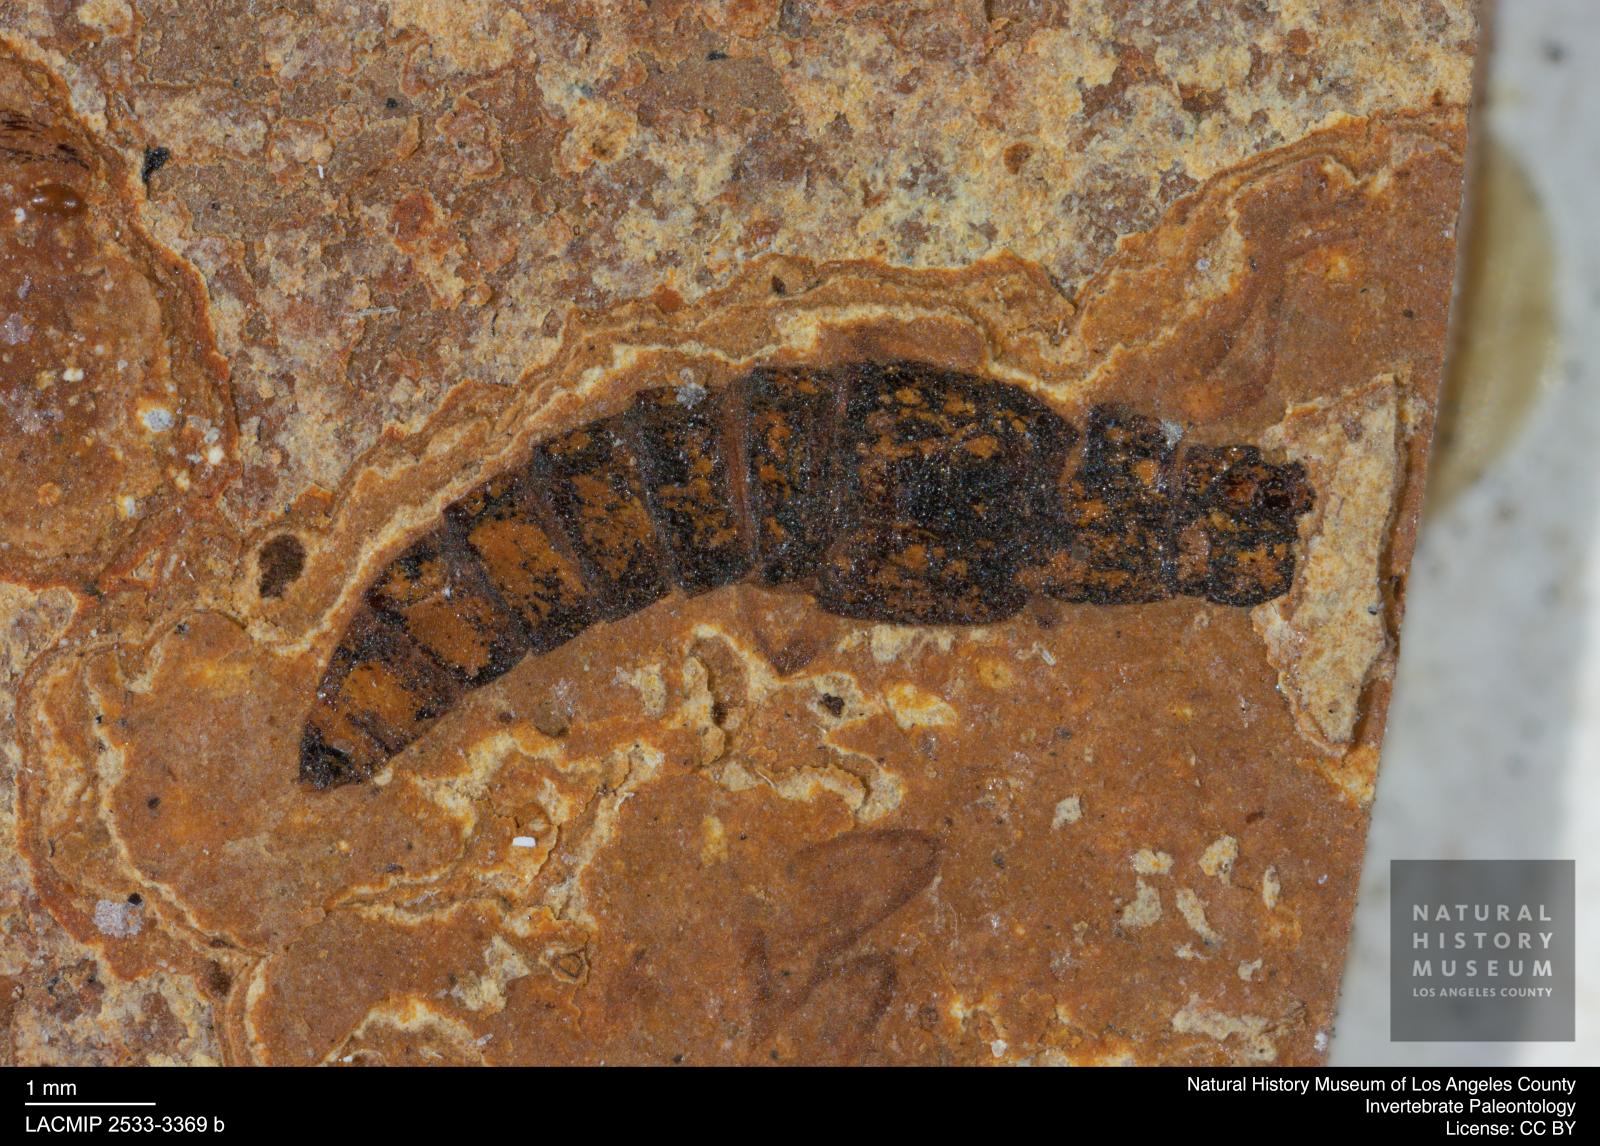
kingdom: Animalia
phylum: Arthropoda
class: Insecta
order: Coleoptera
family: Staphylinidae
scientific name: Staphylinidae
